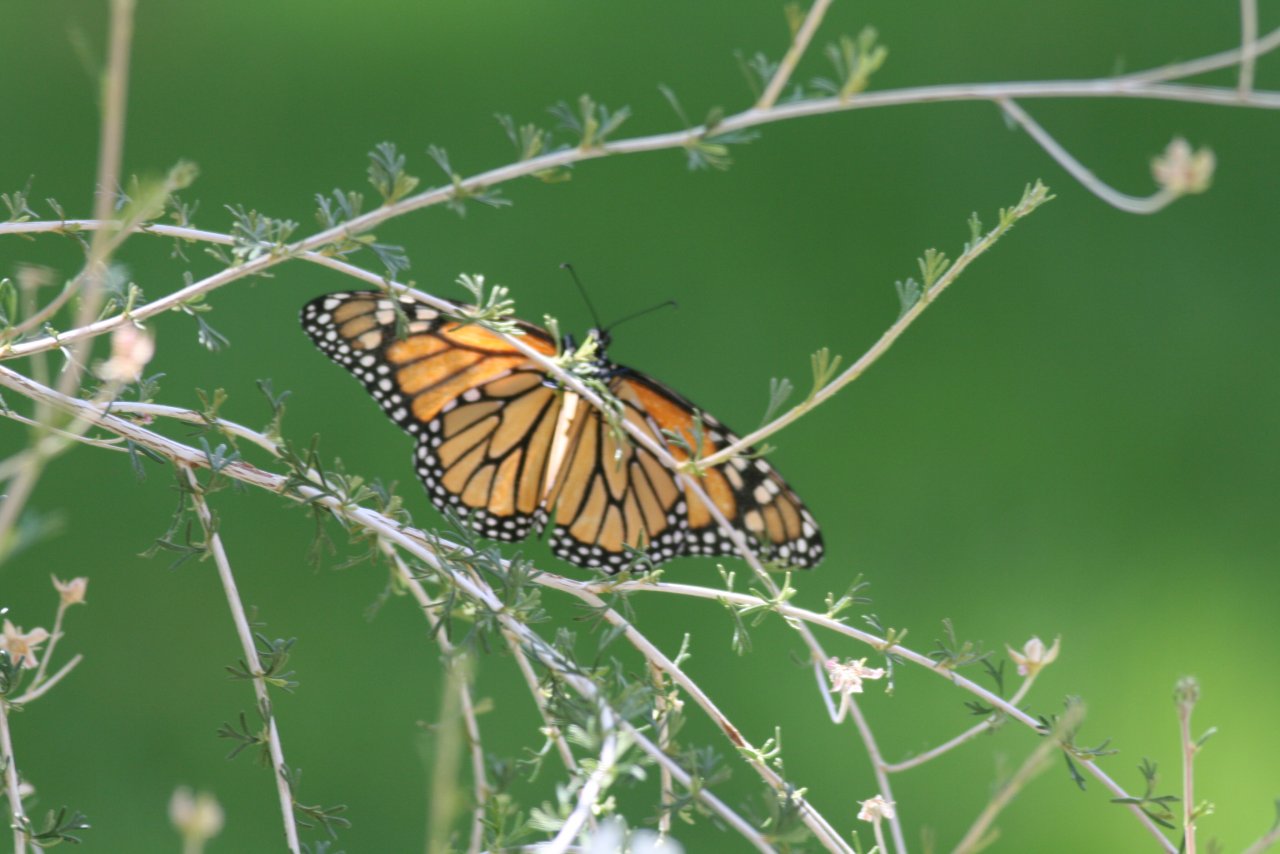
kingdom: Animalia
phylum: Arthropoda
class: Insecta
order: Lepidoptera
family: Nymphalidae
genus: Danaus
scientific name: Danaus plexippus
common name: Monarch
